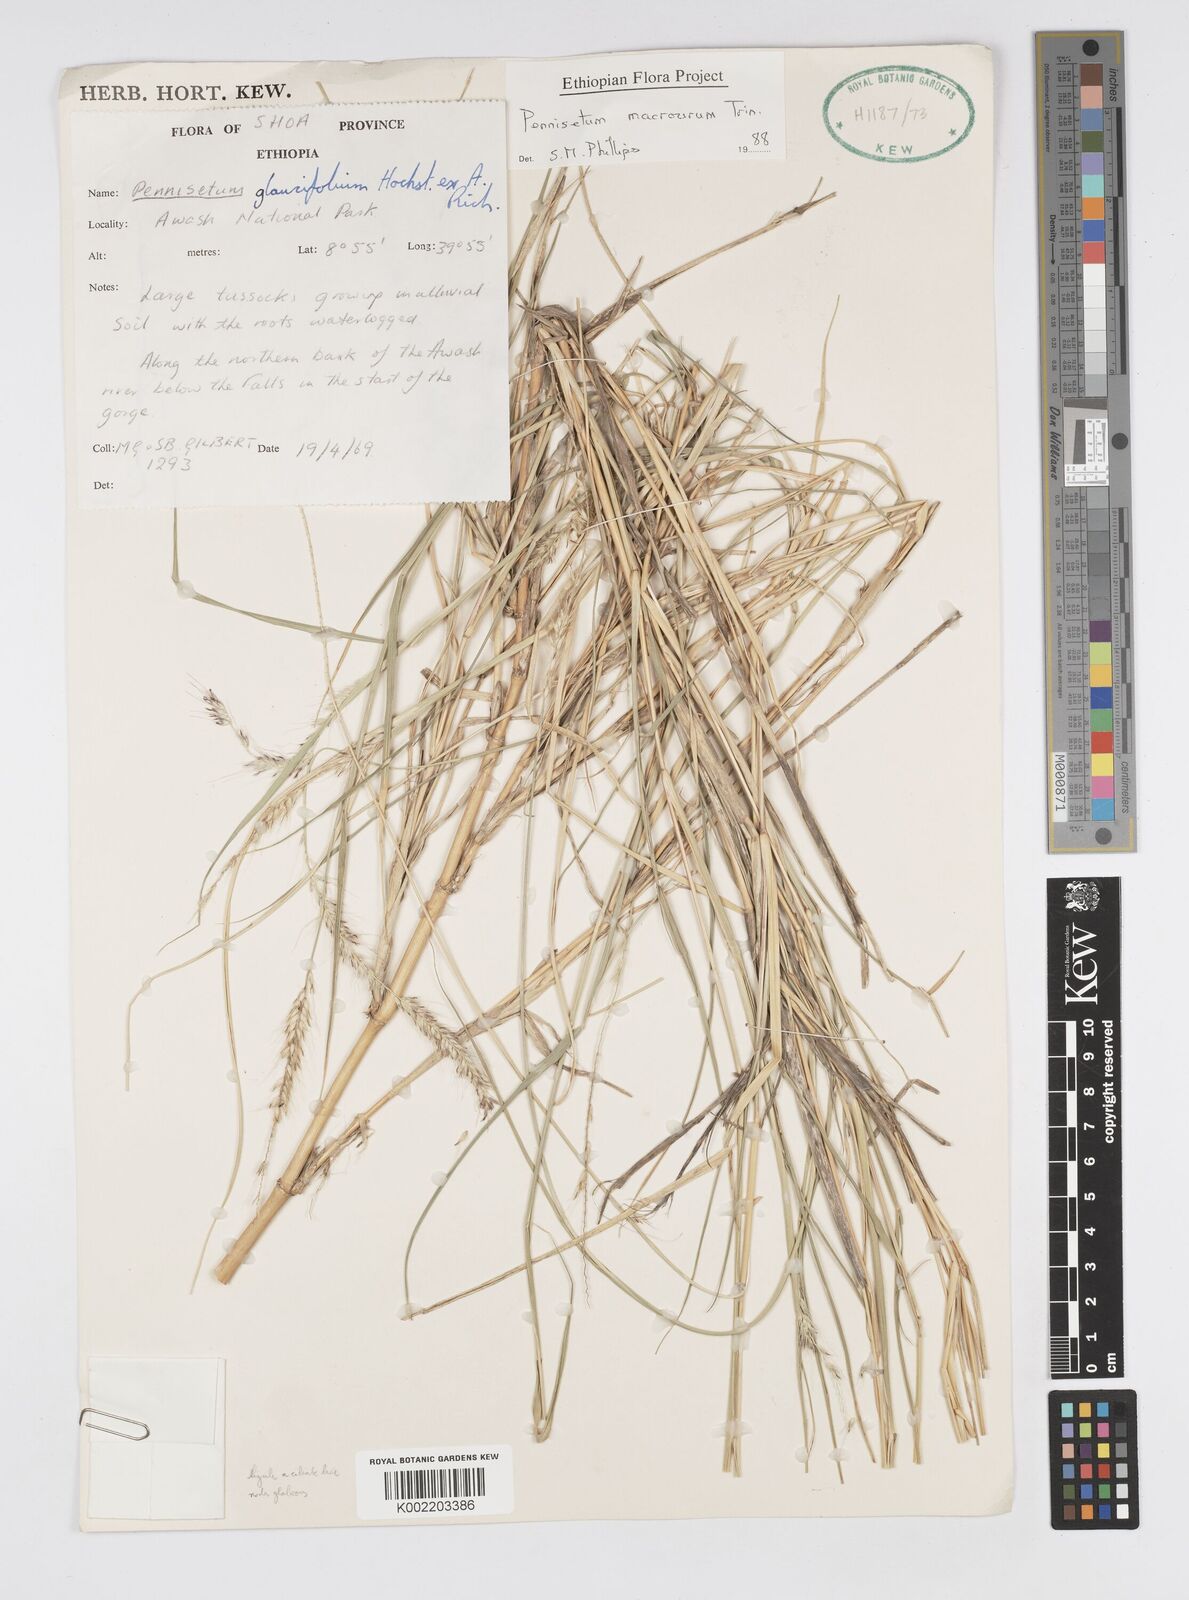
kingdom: Plantae
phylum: Tracheophyta
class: Liliopsida
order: Poales
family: Poaceae
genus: Cenchrus
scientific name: Cenchrus caudatus
